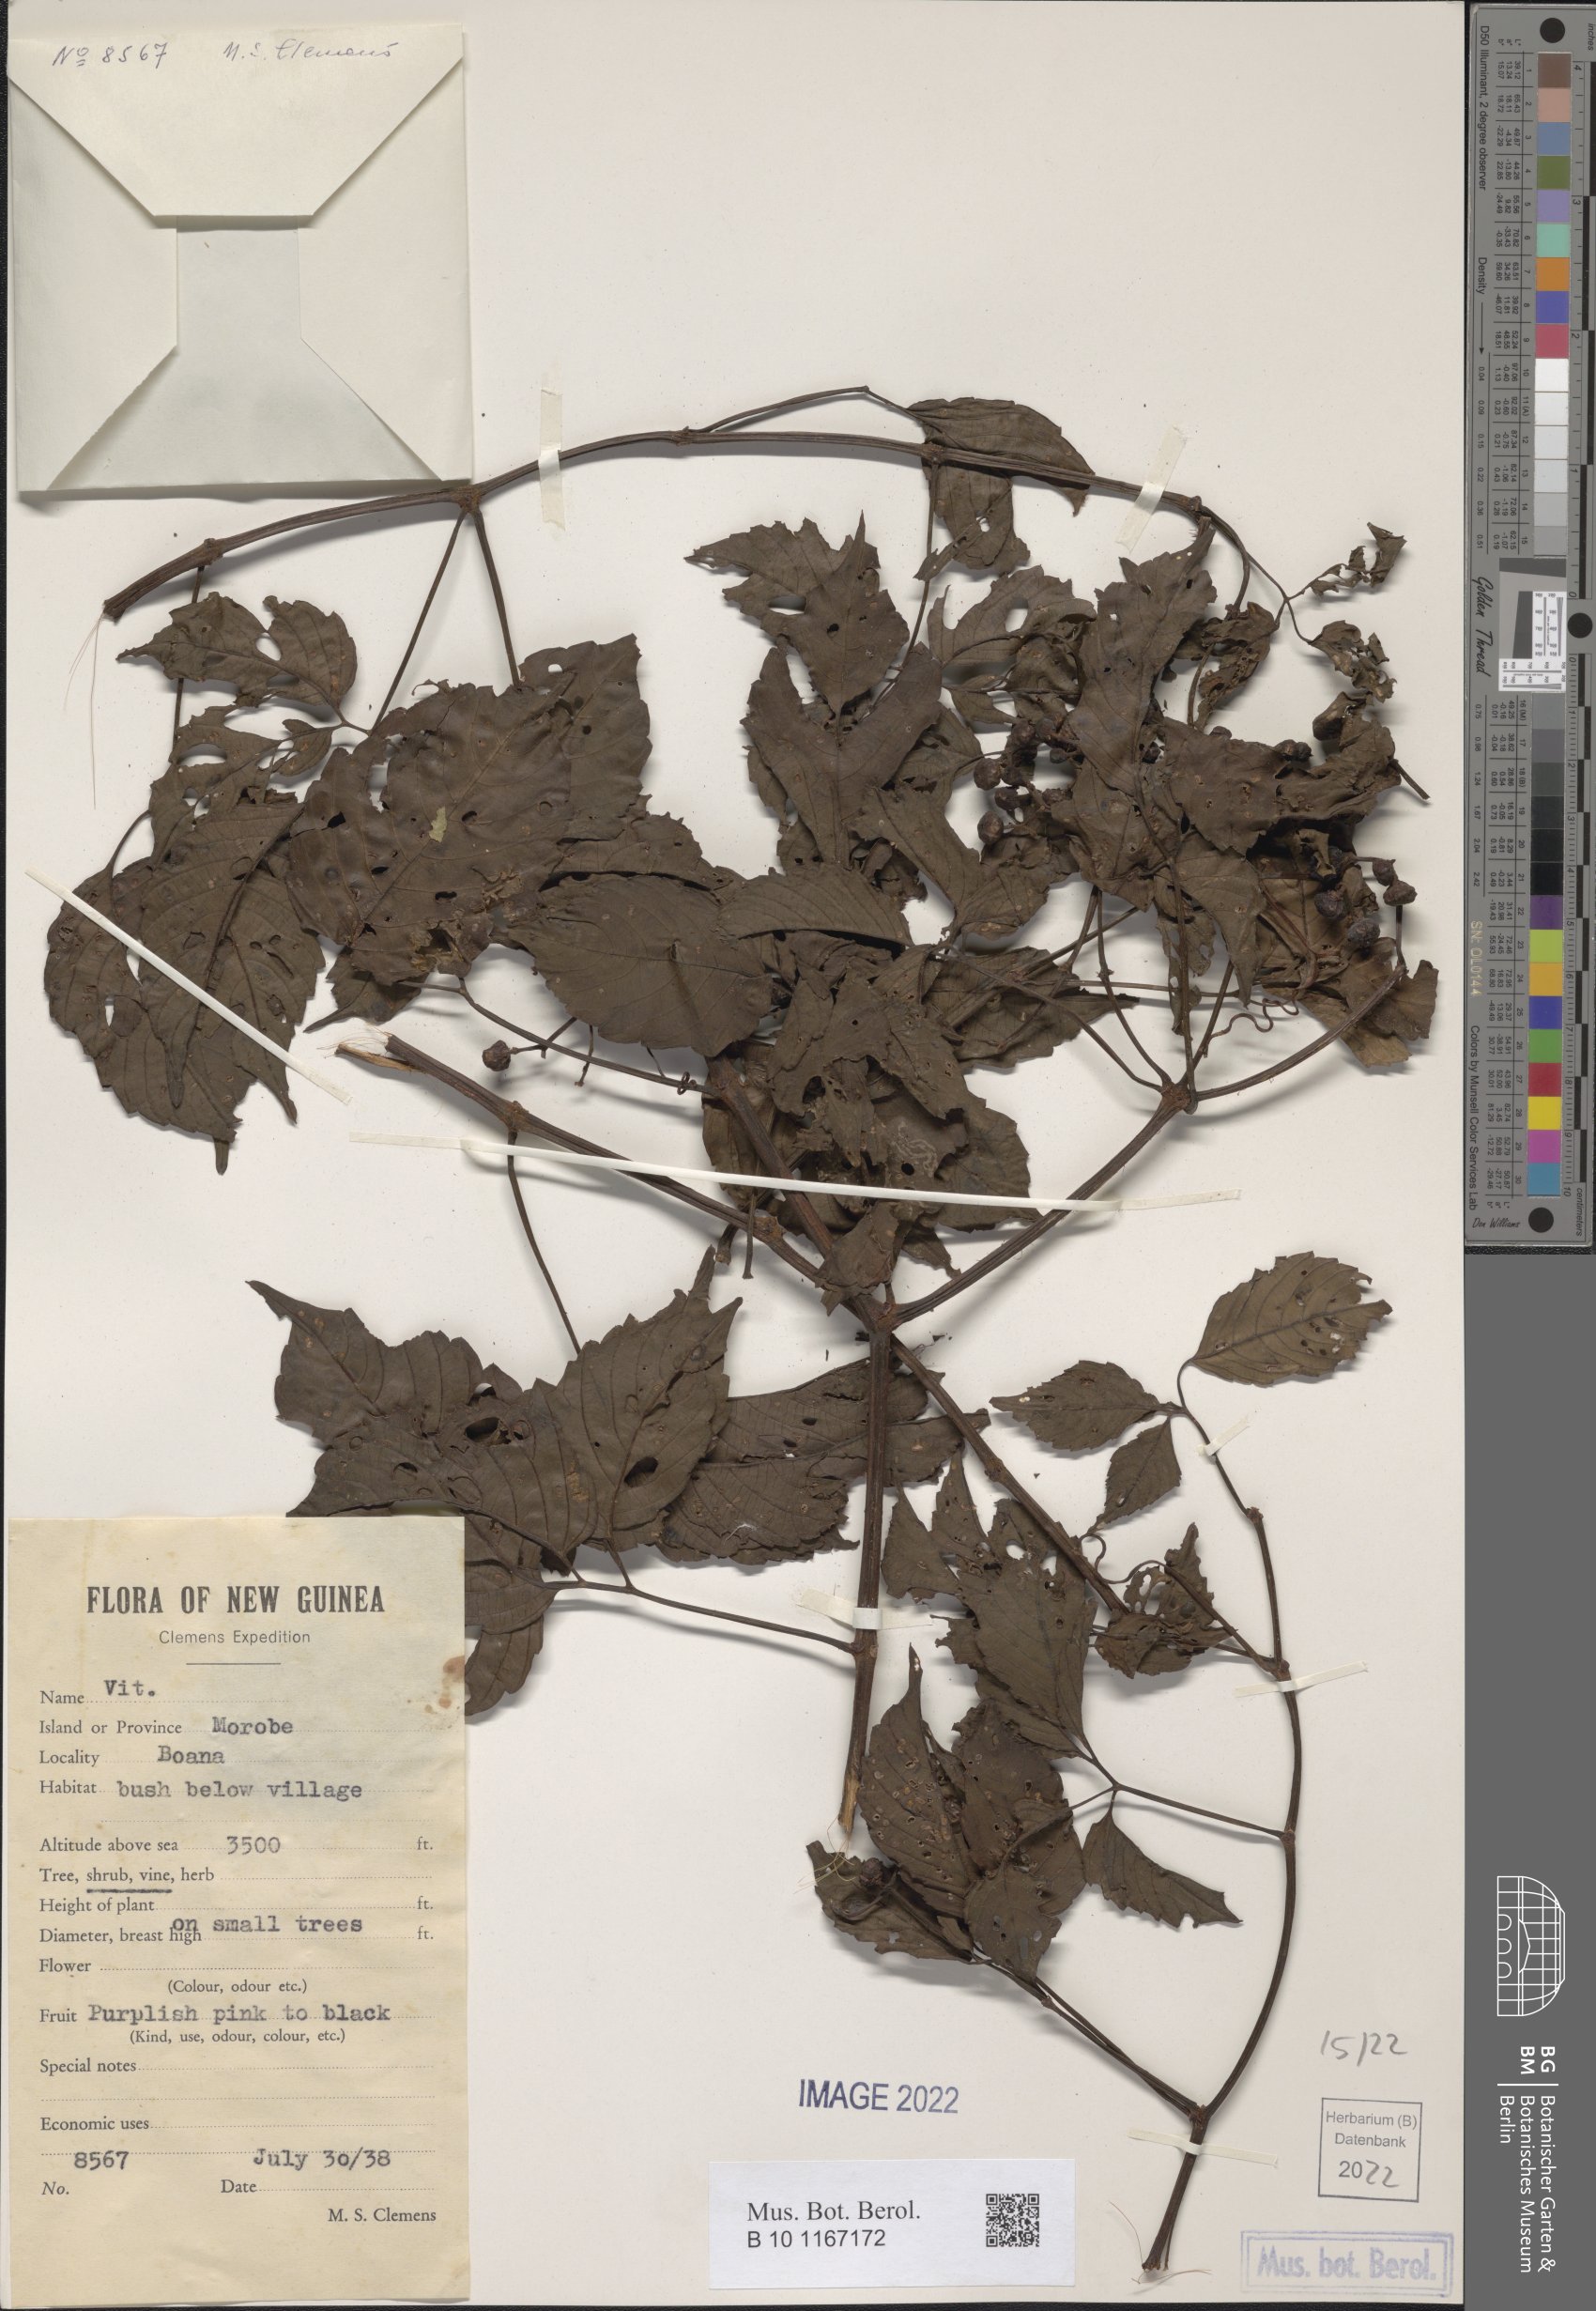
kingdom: Plantae
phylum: Tracheophyta
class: Magnoliopsida
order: Vitales
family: Vitaceae
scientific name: Vitaceae
